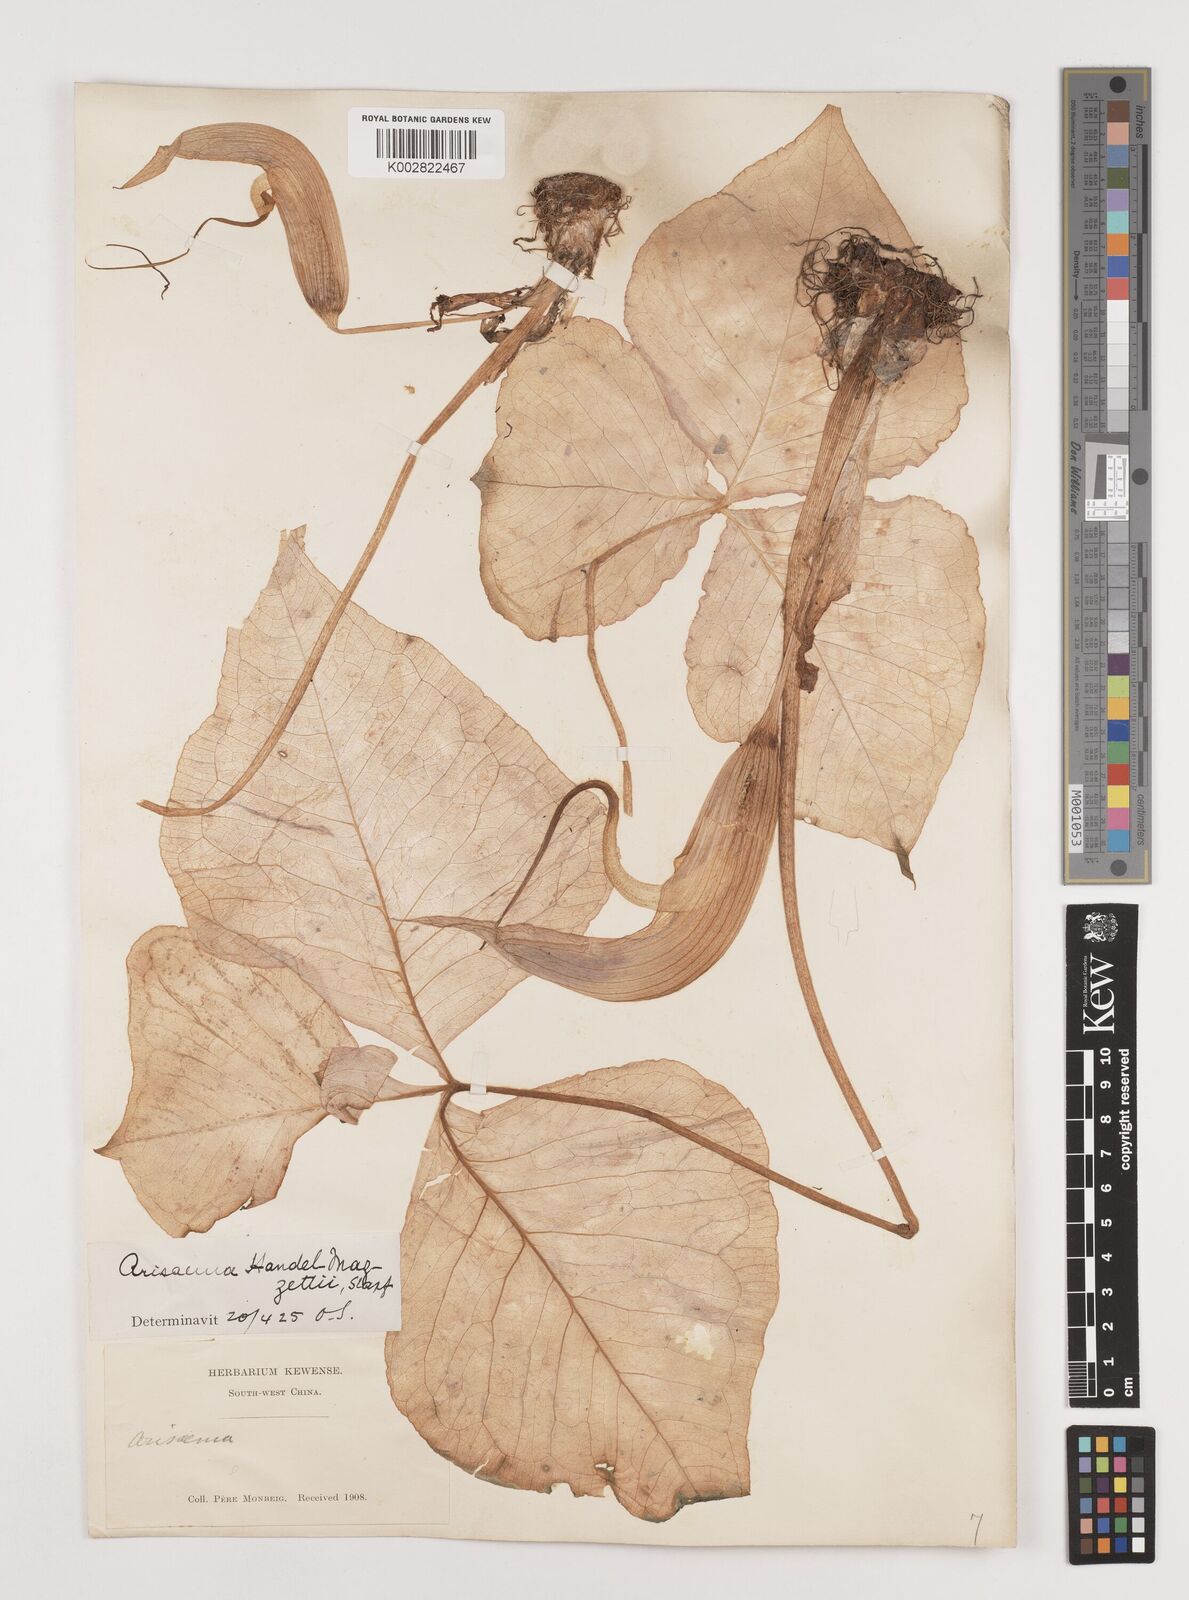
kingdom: Plantae
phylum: Tracheophyta
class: Liliopsida
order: Alismatales
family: Araceae
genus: Arisaema
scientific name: Arisaema handelii
